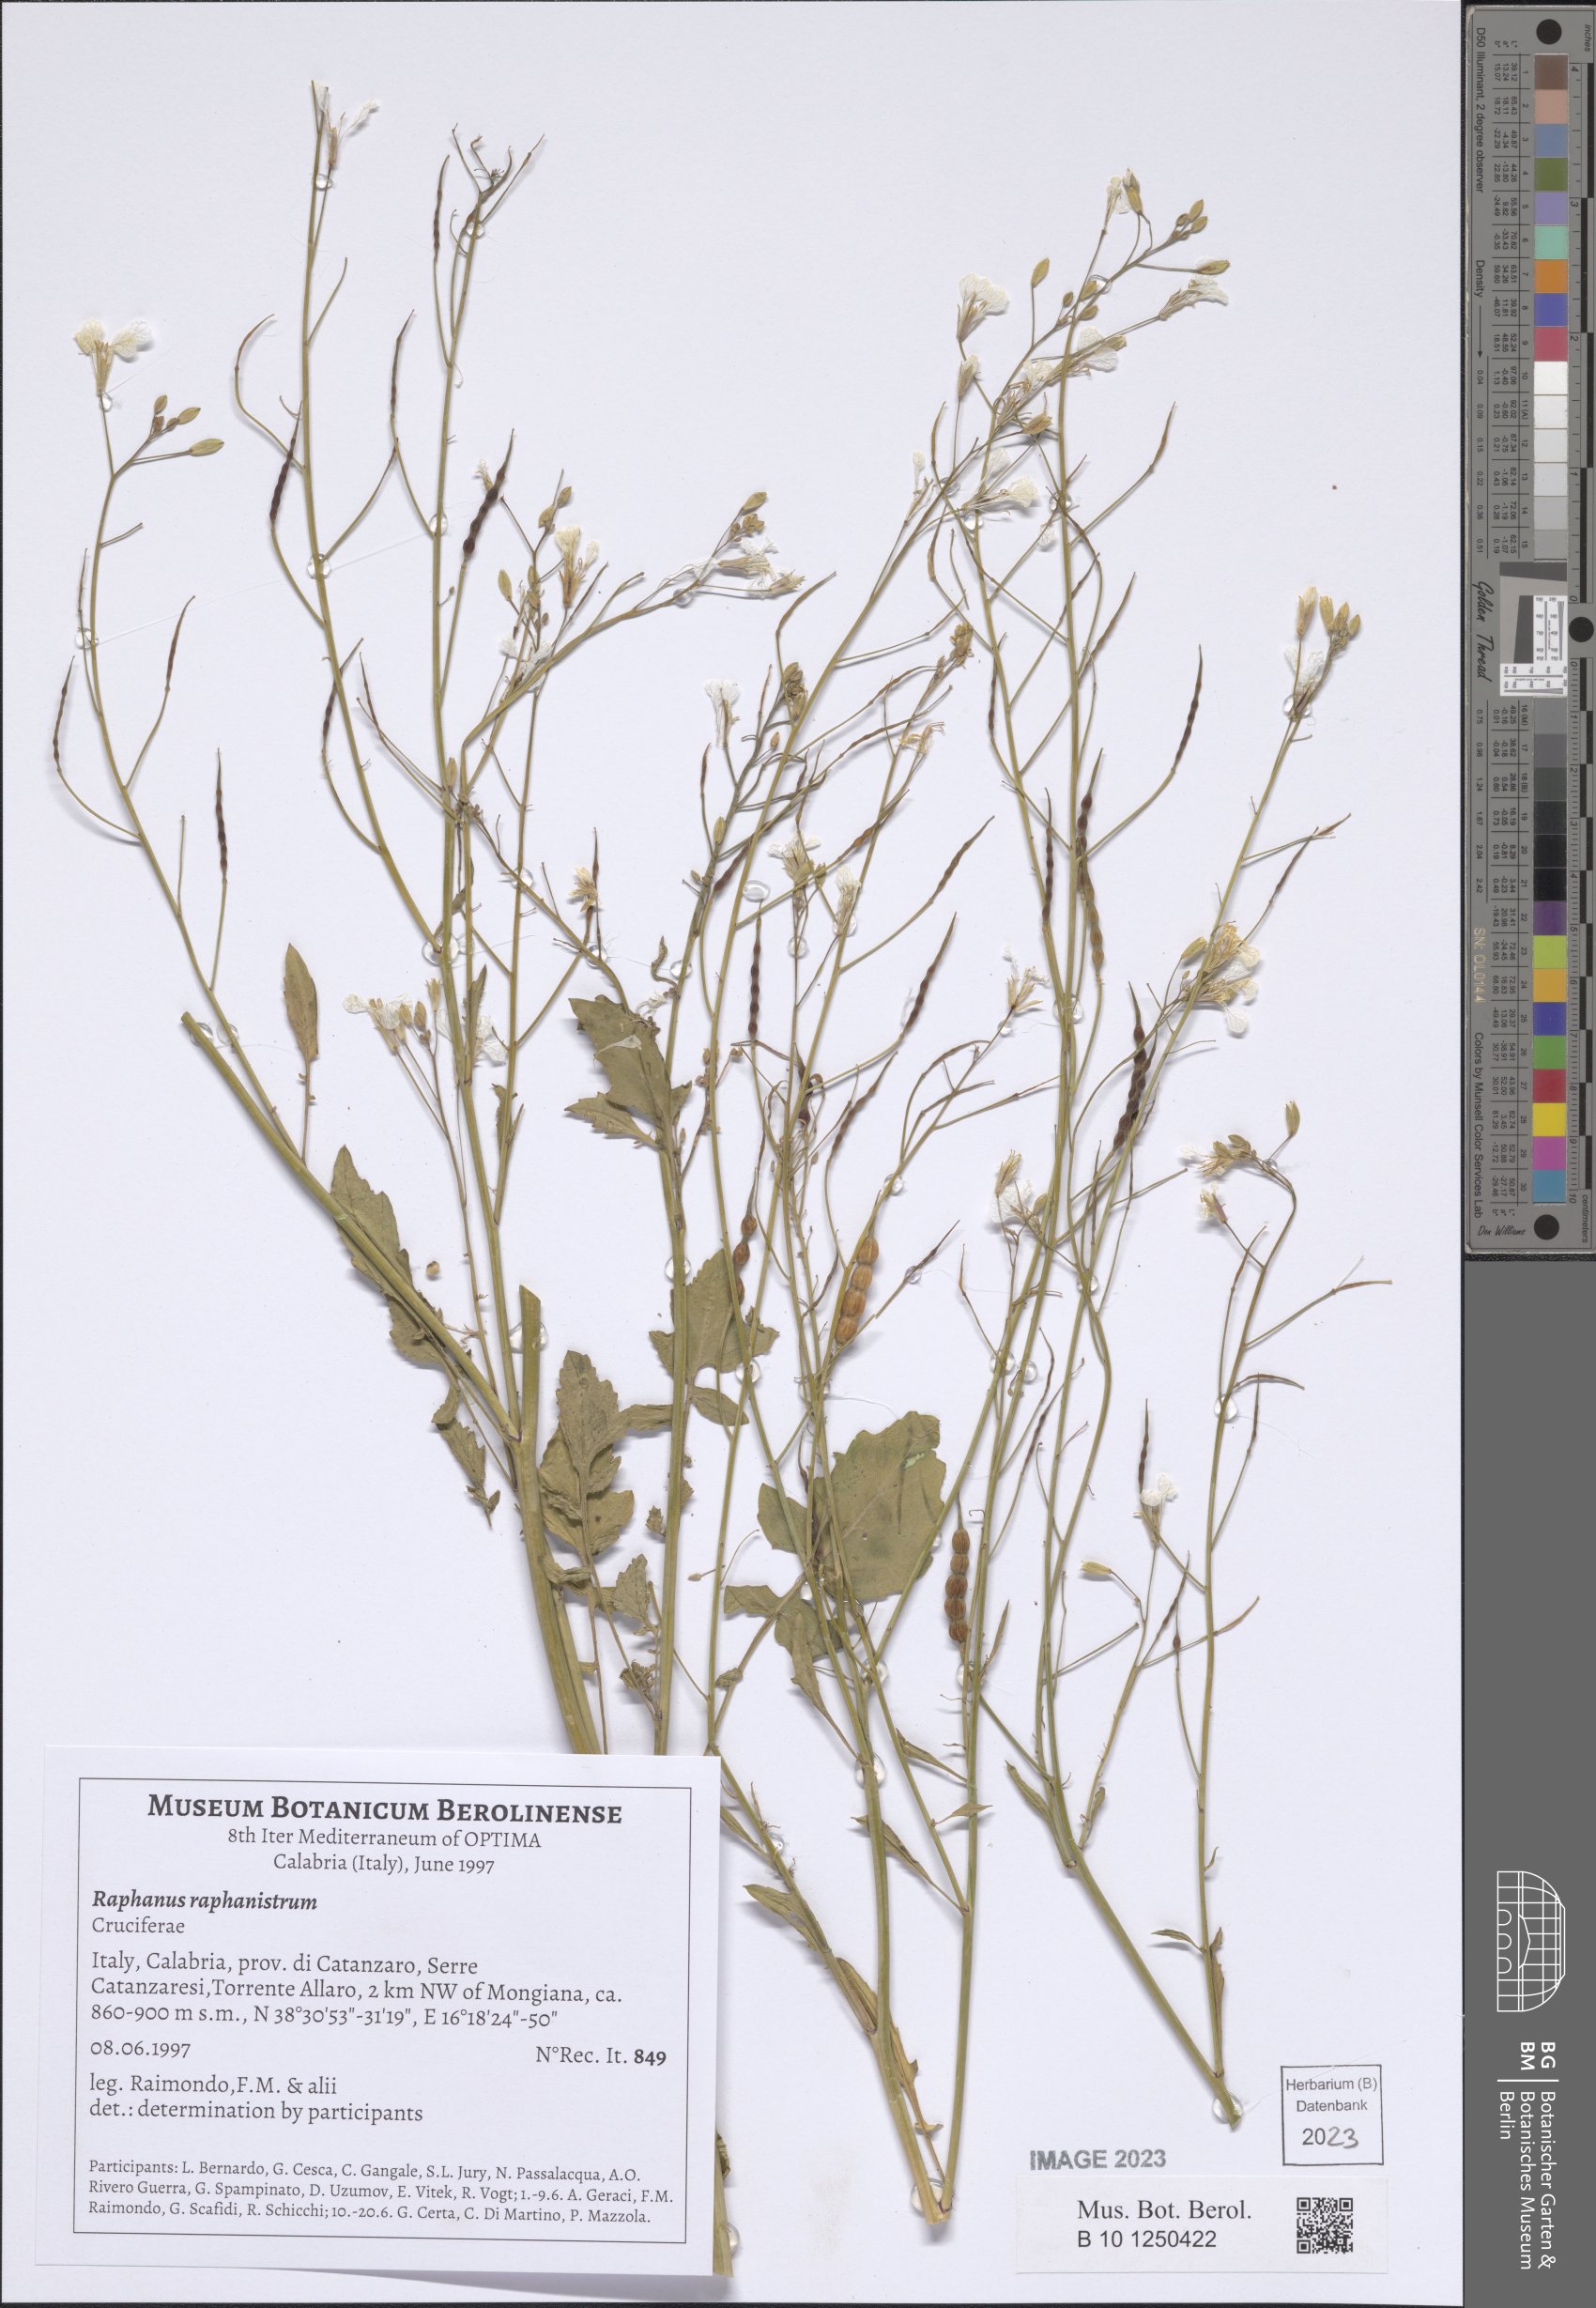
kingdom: Plantae
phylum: Tracheophyta
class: Magnoliopsida
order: Brassicales
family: Brassicaceae
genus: Raphanus
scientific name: Raphanus raphanistrum
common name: Wild radish
